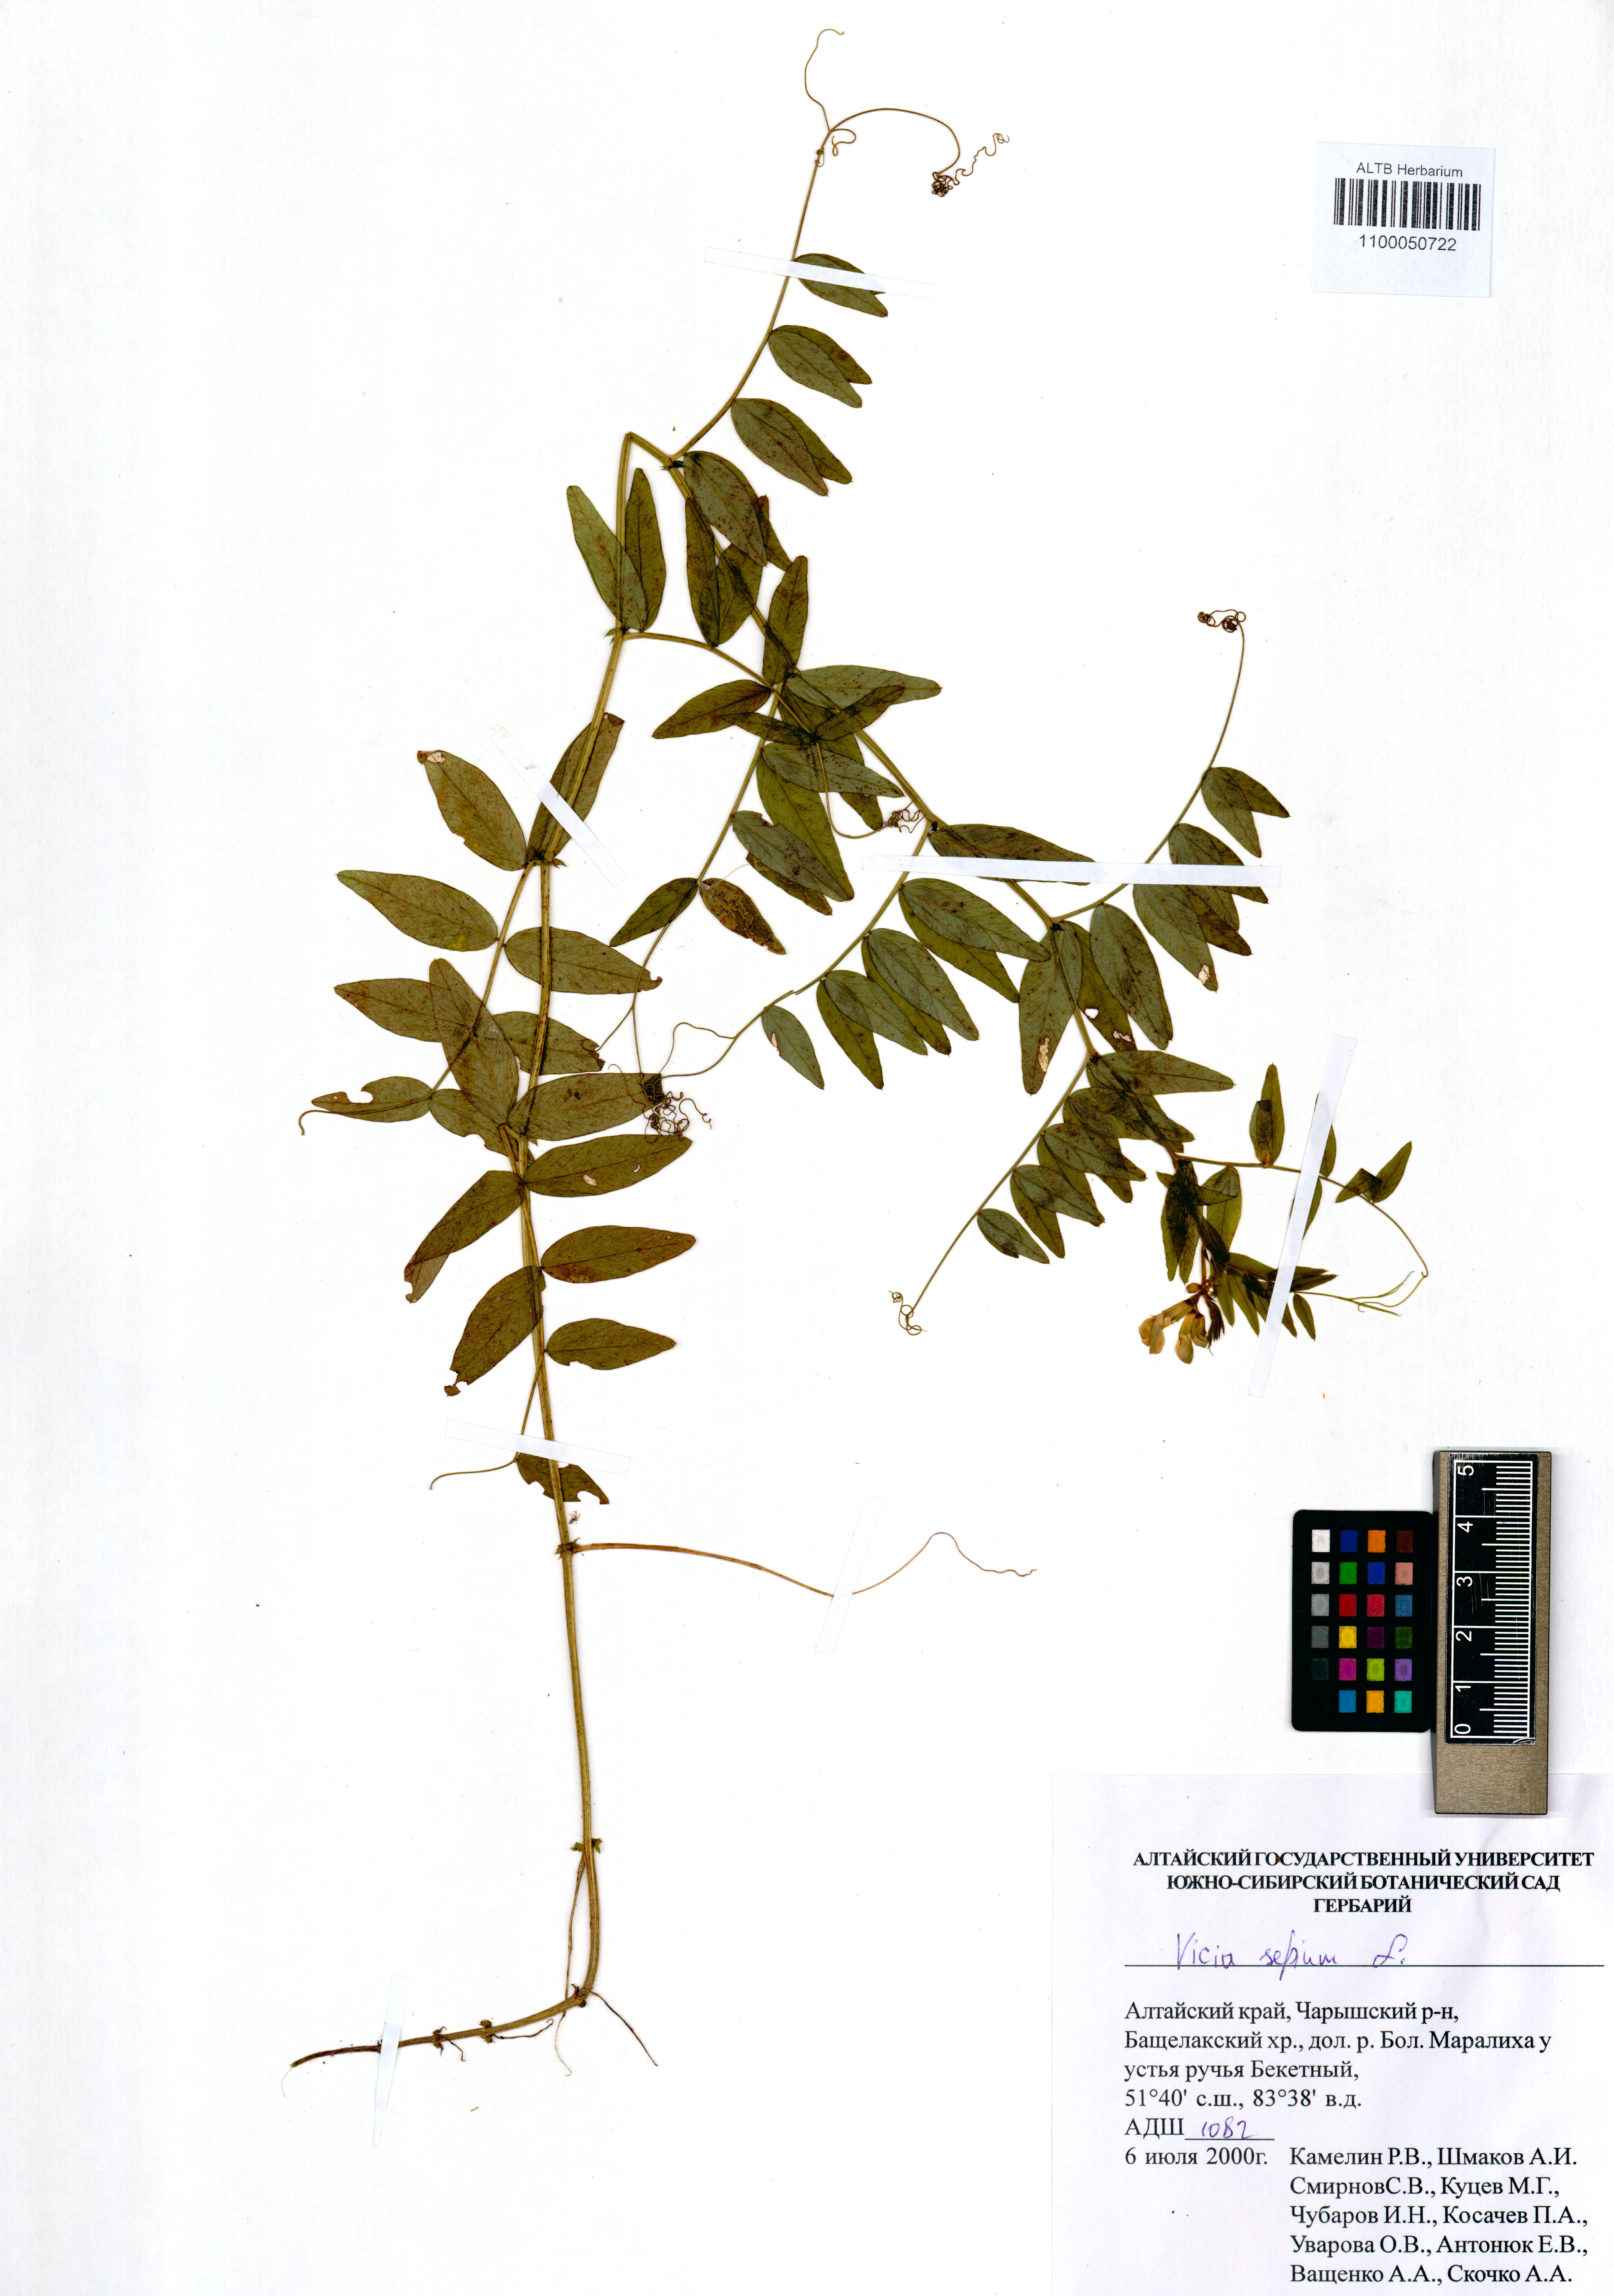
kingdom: Plantae
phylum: Tracheophyta
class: Magnoliopsida
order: Fabales
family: Fabaceae
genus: Vicia
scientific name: Vicia sepium
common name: Bush vetch
